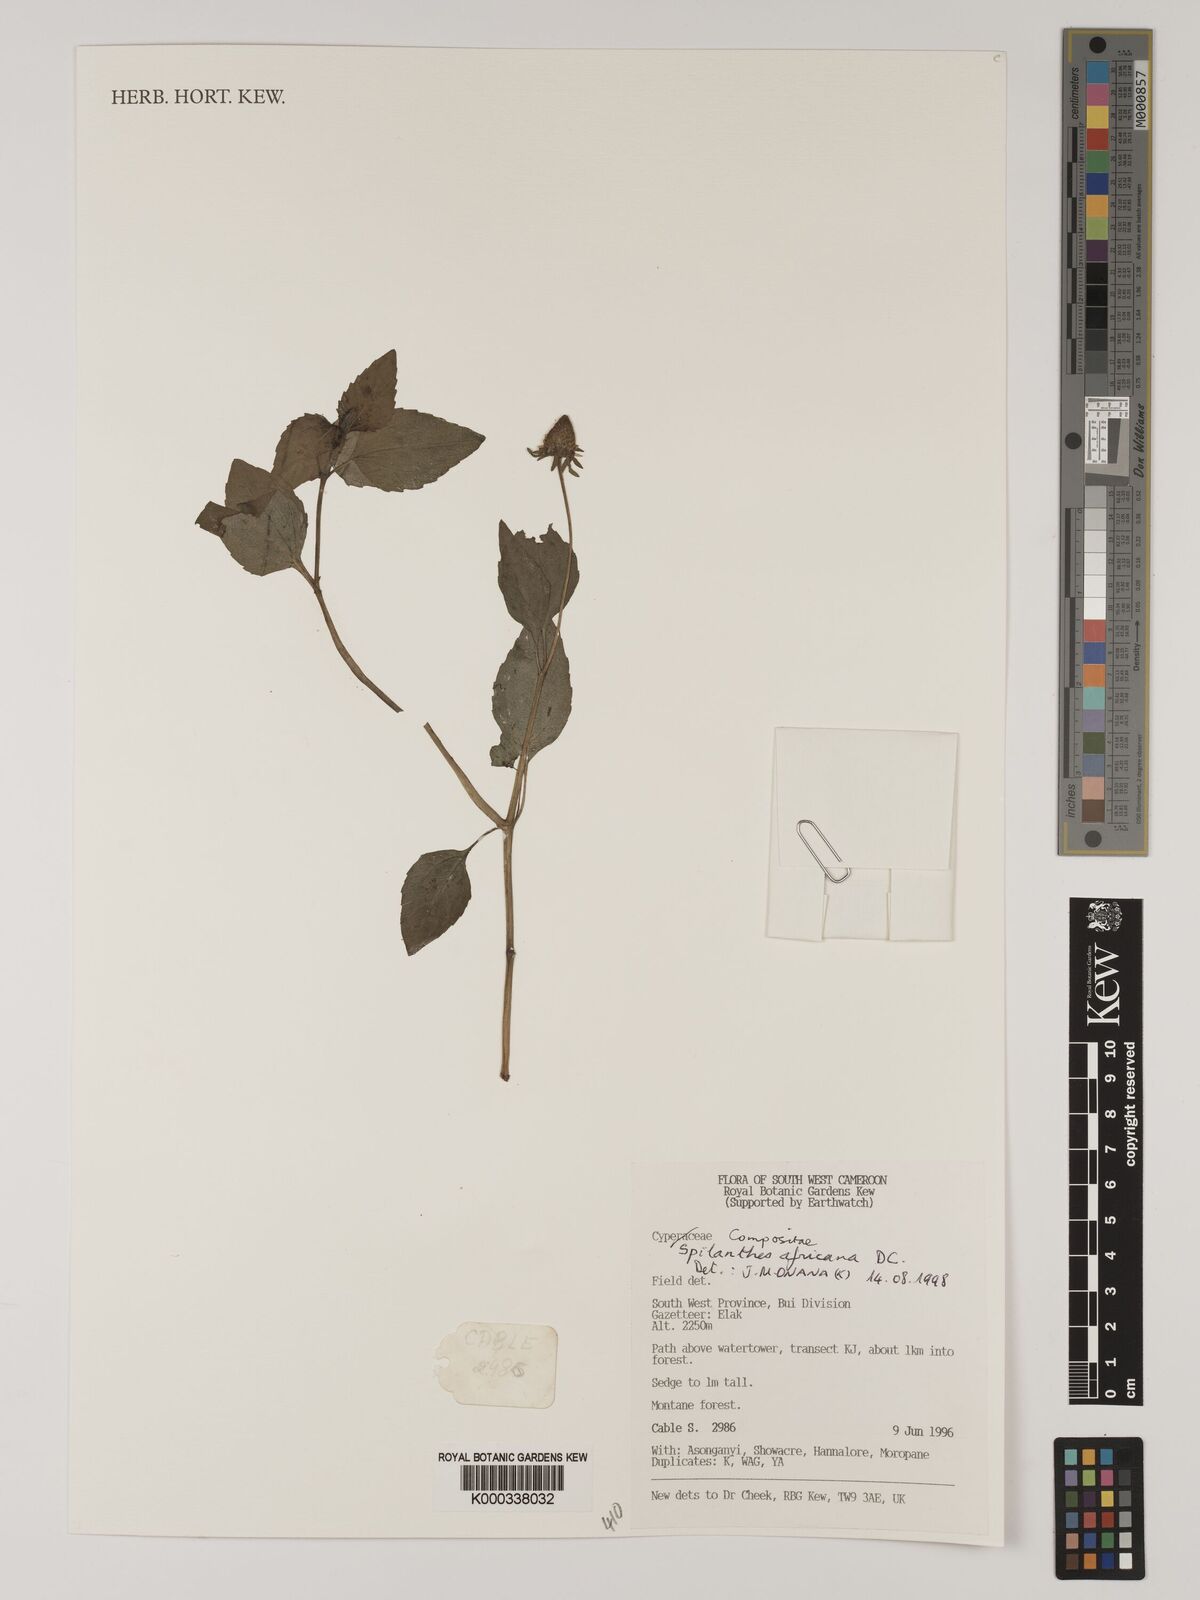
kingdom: Plantae
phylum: Tracheophyta
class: Magnoliopsida
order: Asterales
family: Asteraceae
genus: Acmella
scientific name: Acmella caulirhiza
